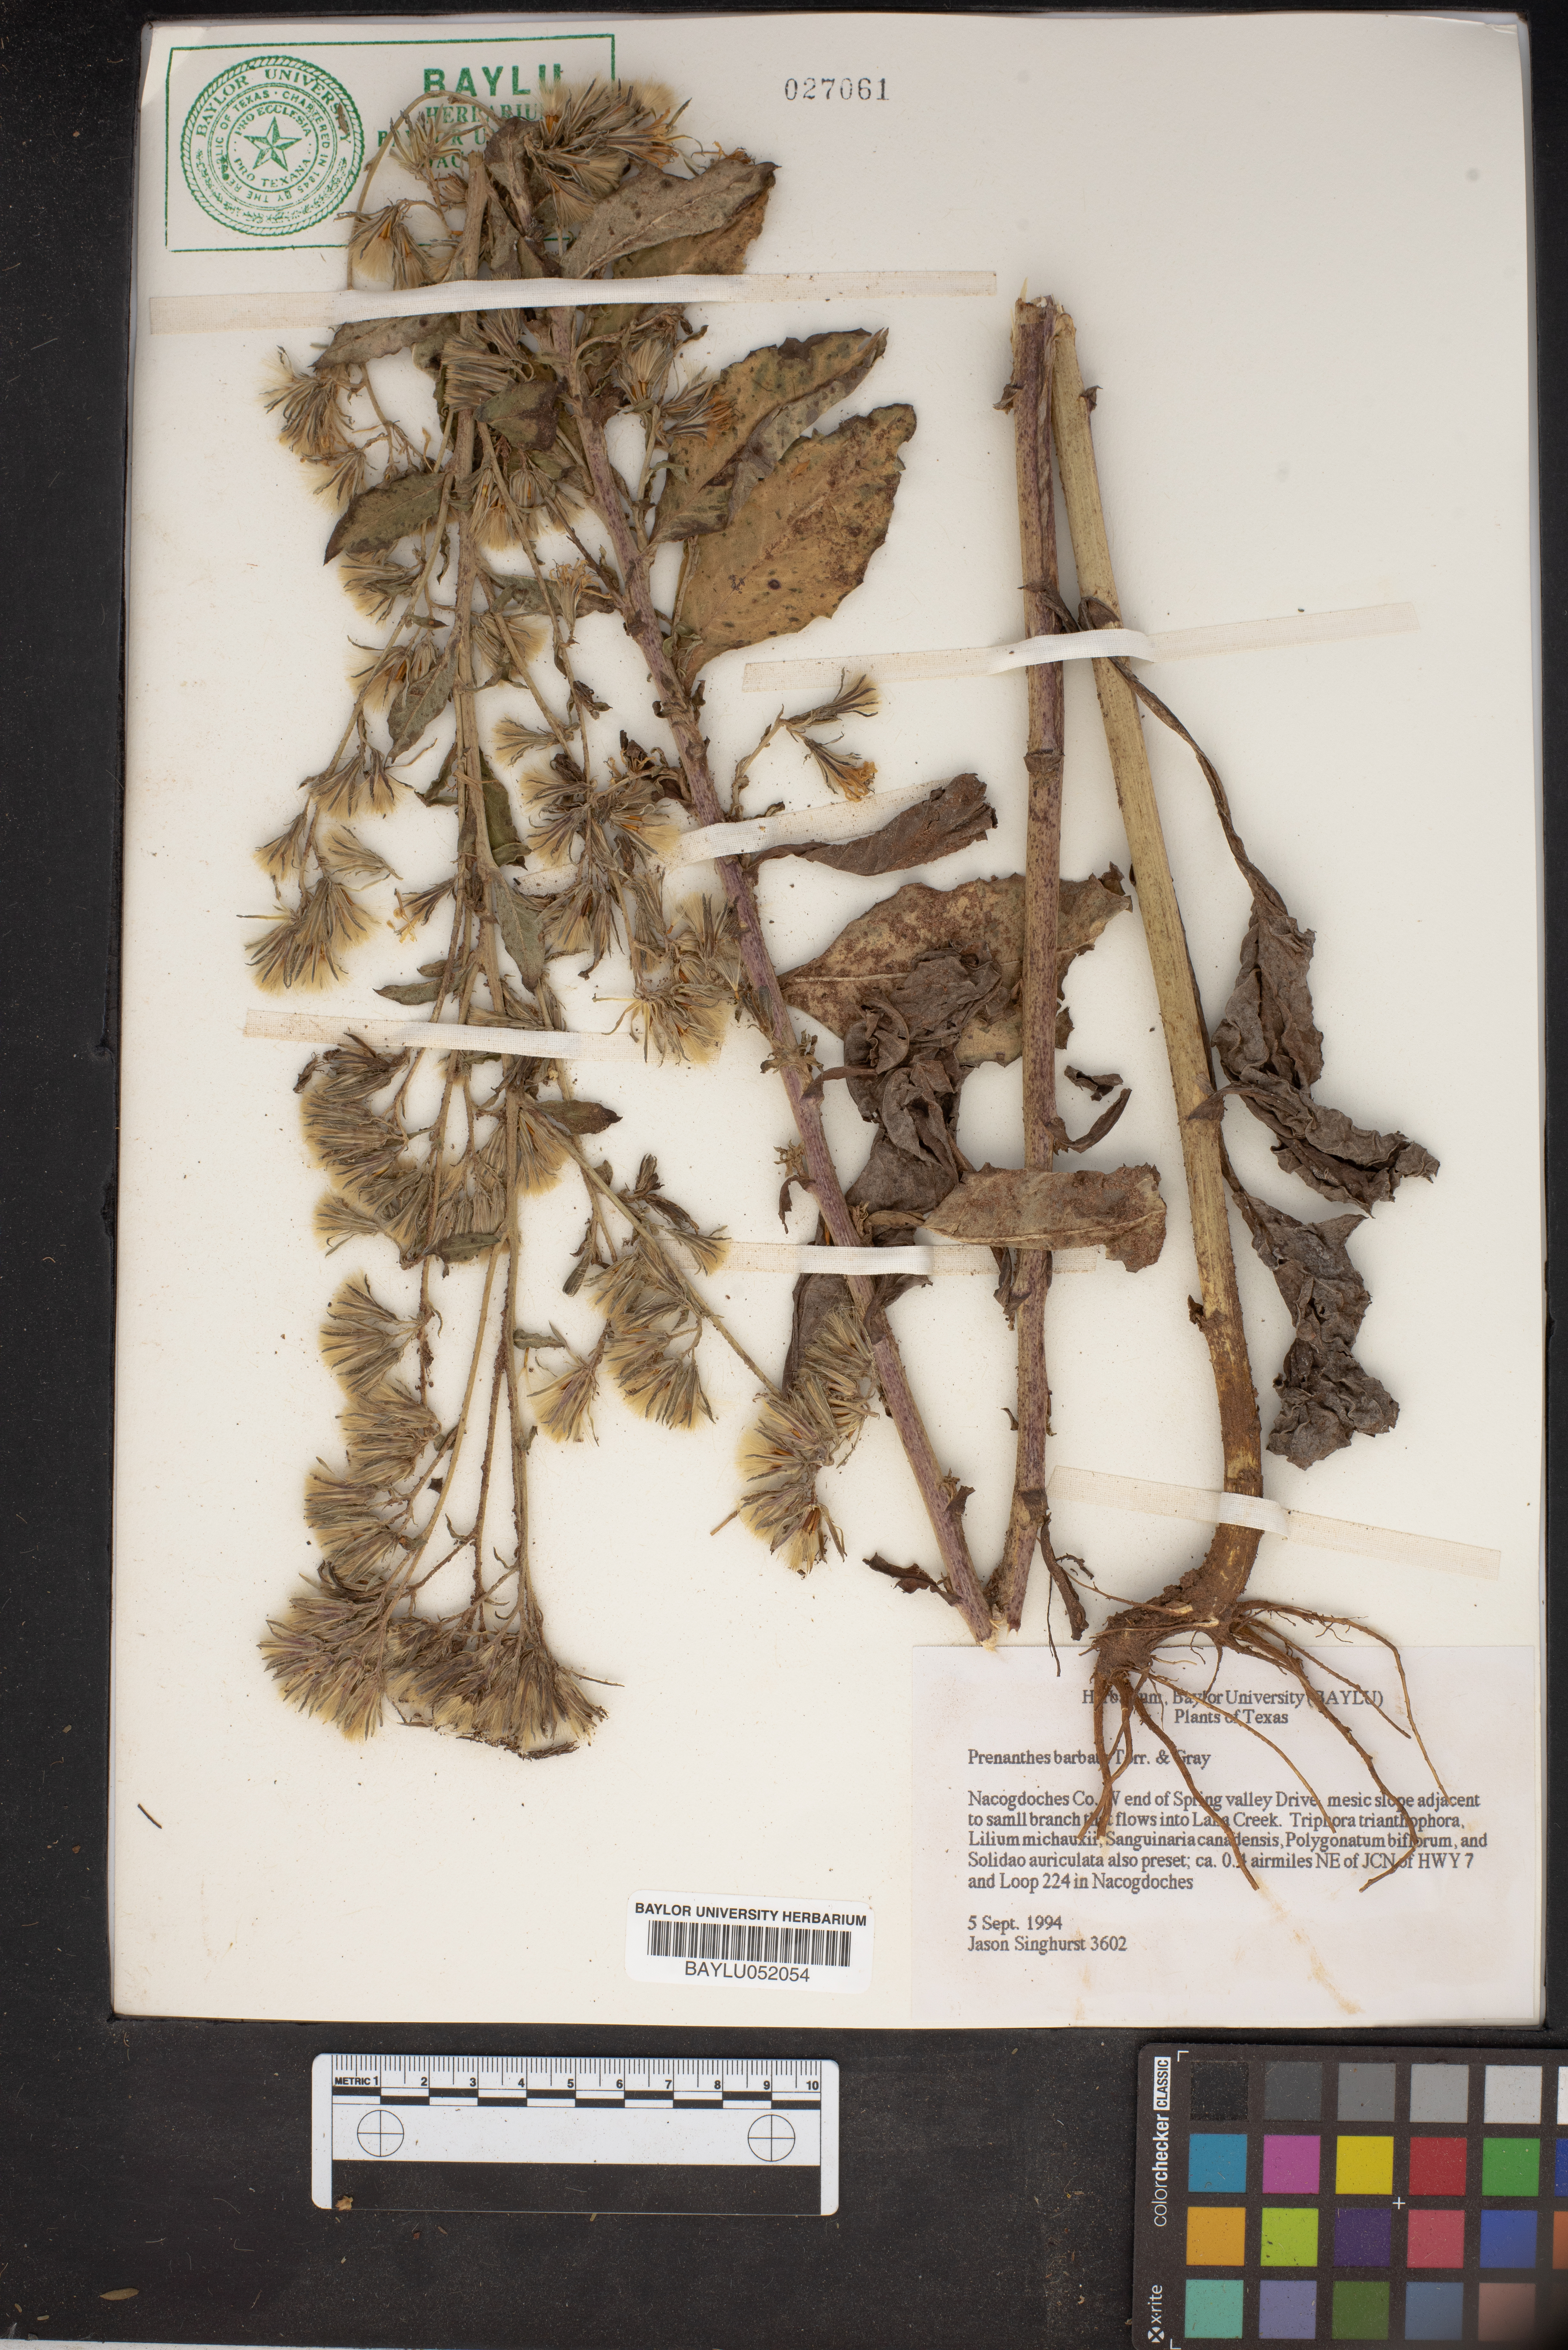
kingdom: Plantae
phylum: Tracheophyta
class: Magnoliopsida
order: Asterales
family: Asteraceae
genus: Nabalus
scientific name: Nabalus barbata
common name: Barbed rattlesnakeroot
